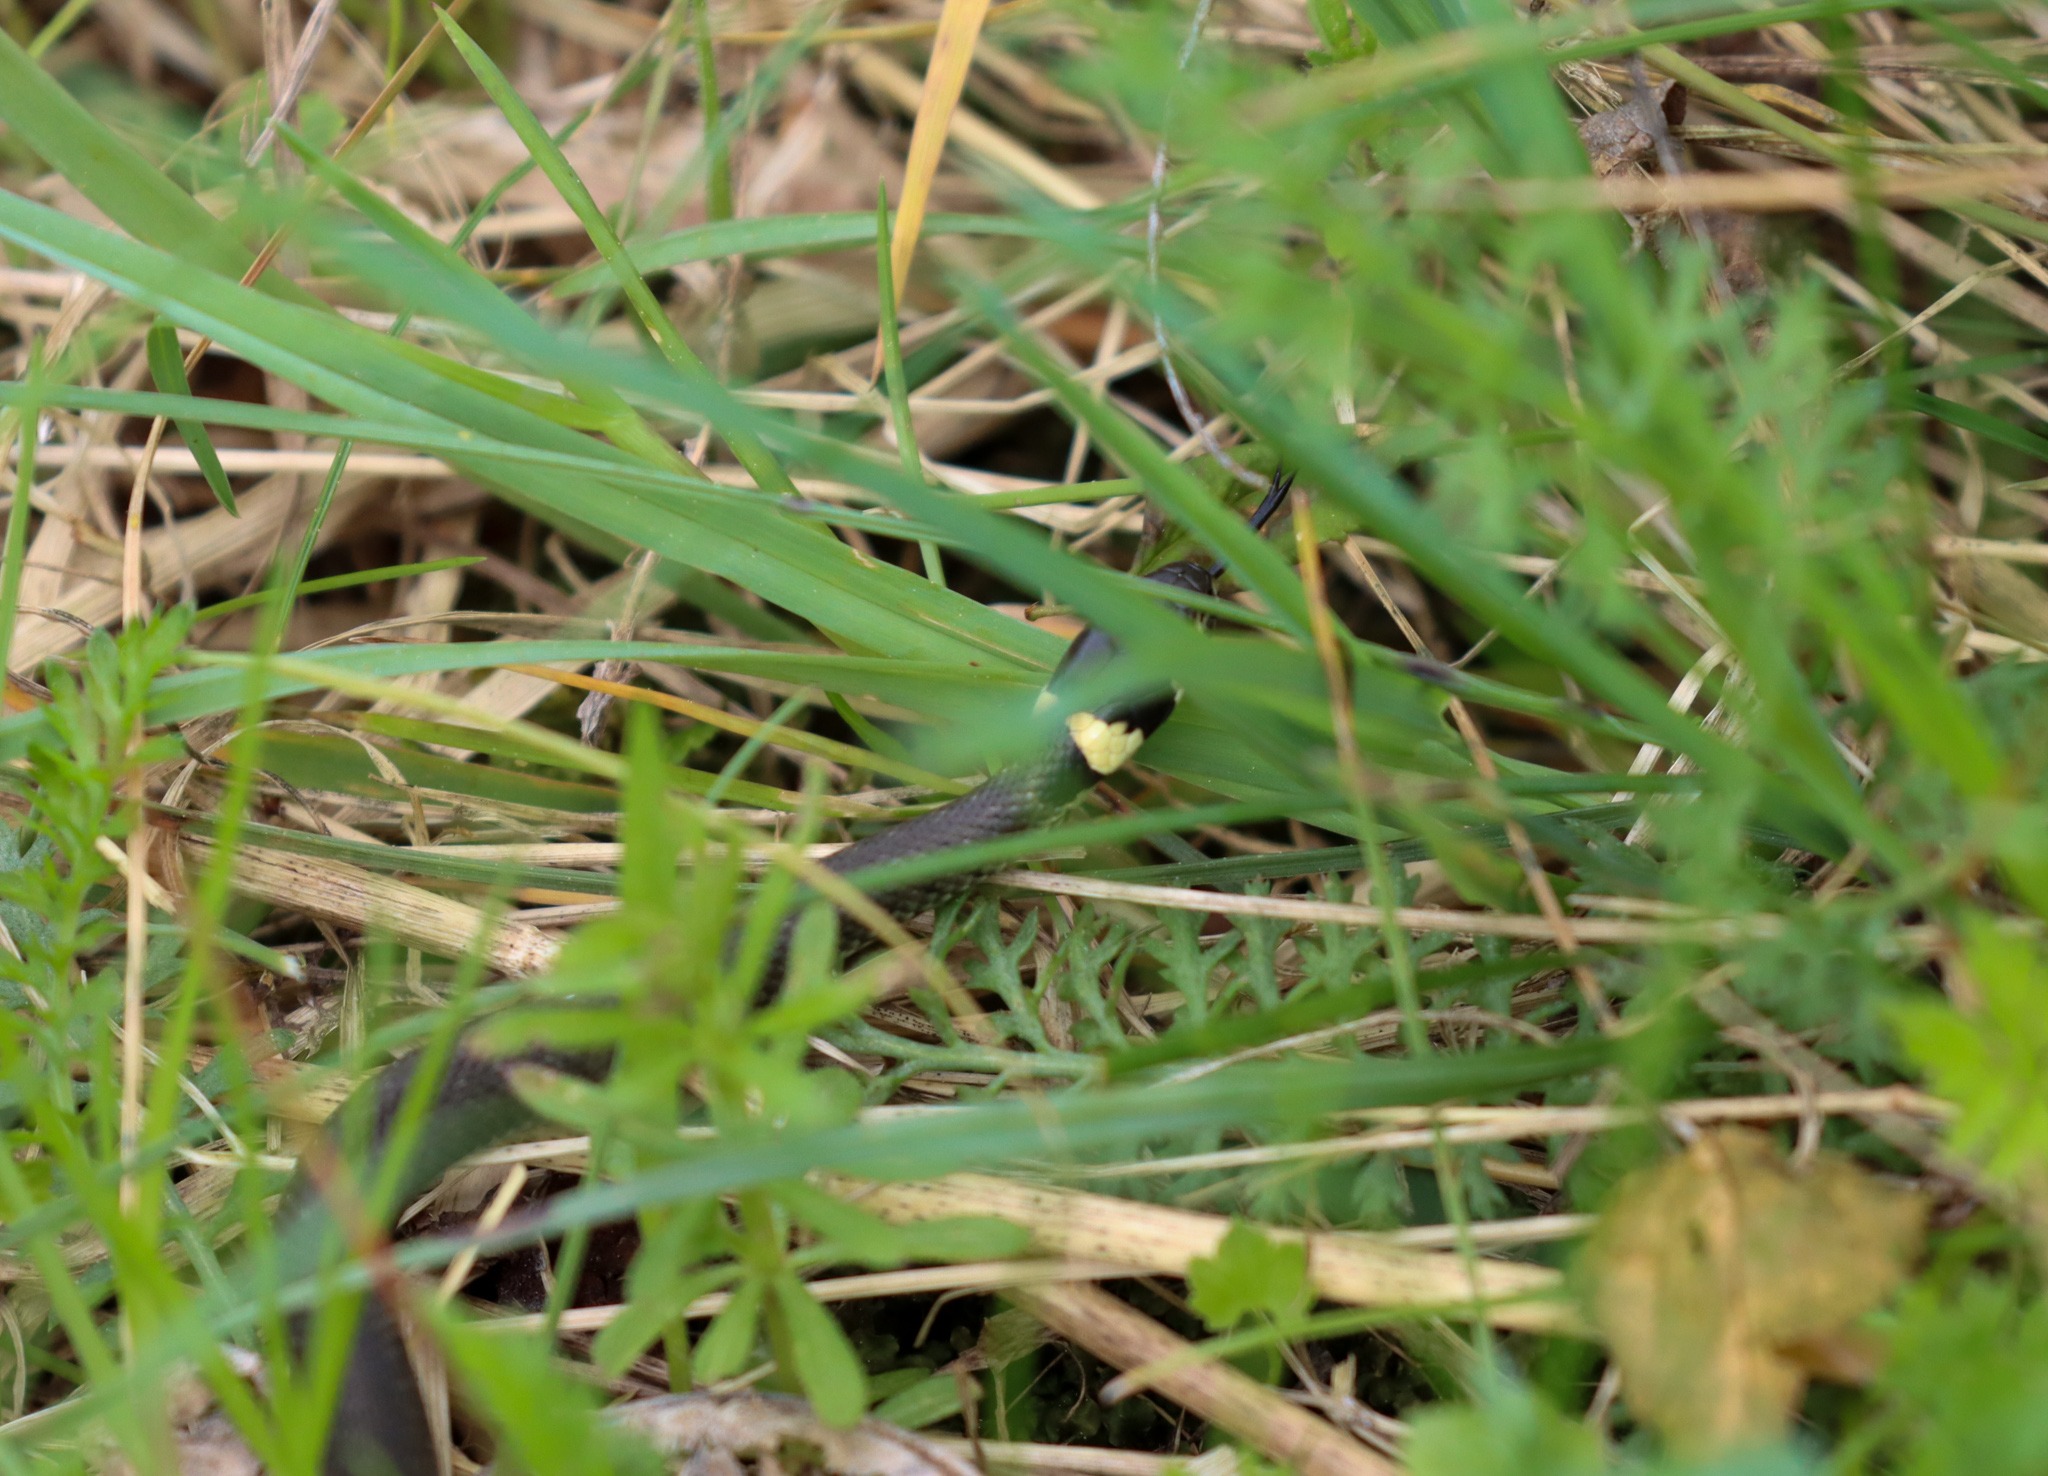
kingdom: Animalia
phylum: Chordata
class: Squamata
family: Colubridae
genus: Natrix
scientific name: Natrix natrix
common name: Snog
